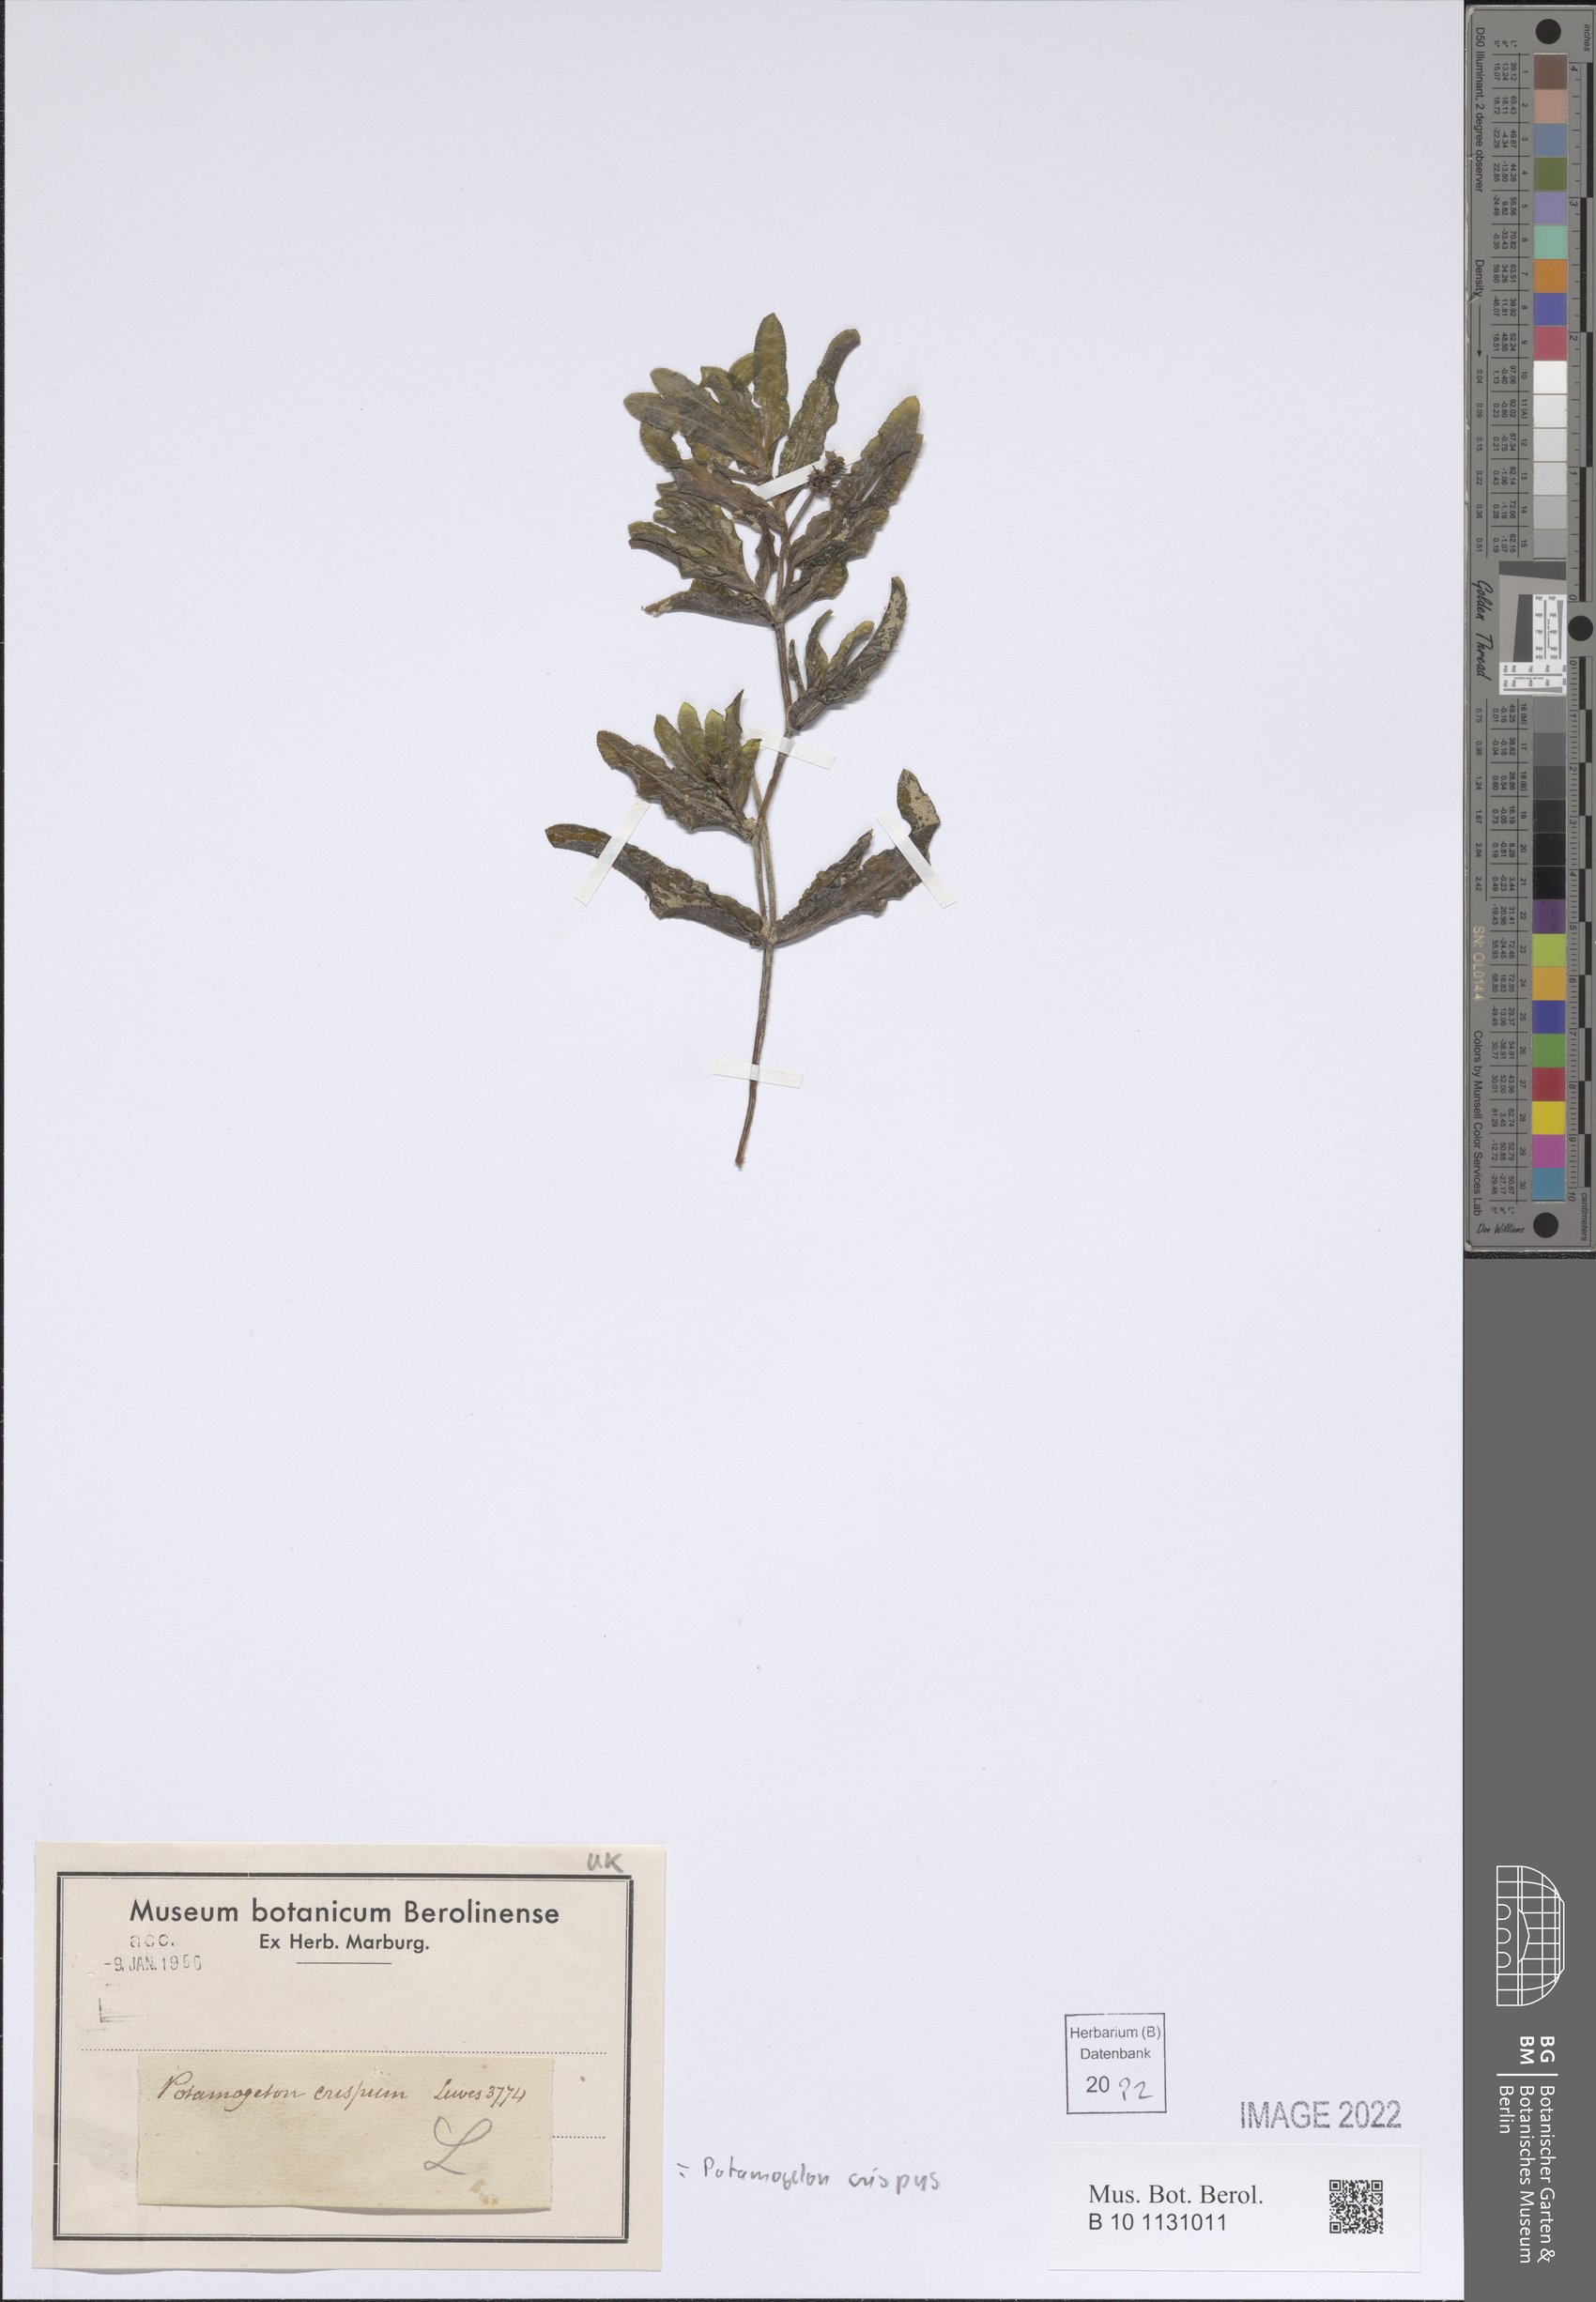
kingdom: Plantae
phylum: Tracheophyta
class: Liliopsida
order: Alismatales
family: Potamogetonaceae
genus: Potamogeton
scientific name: Potamogeton crispus
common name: Curled pondweed
